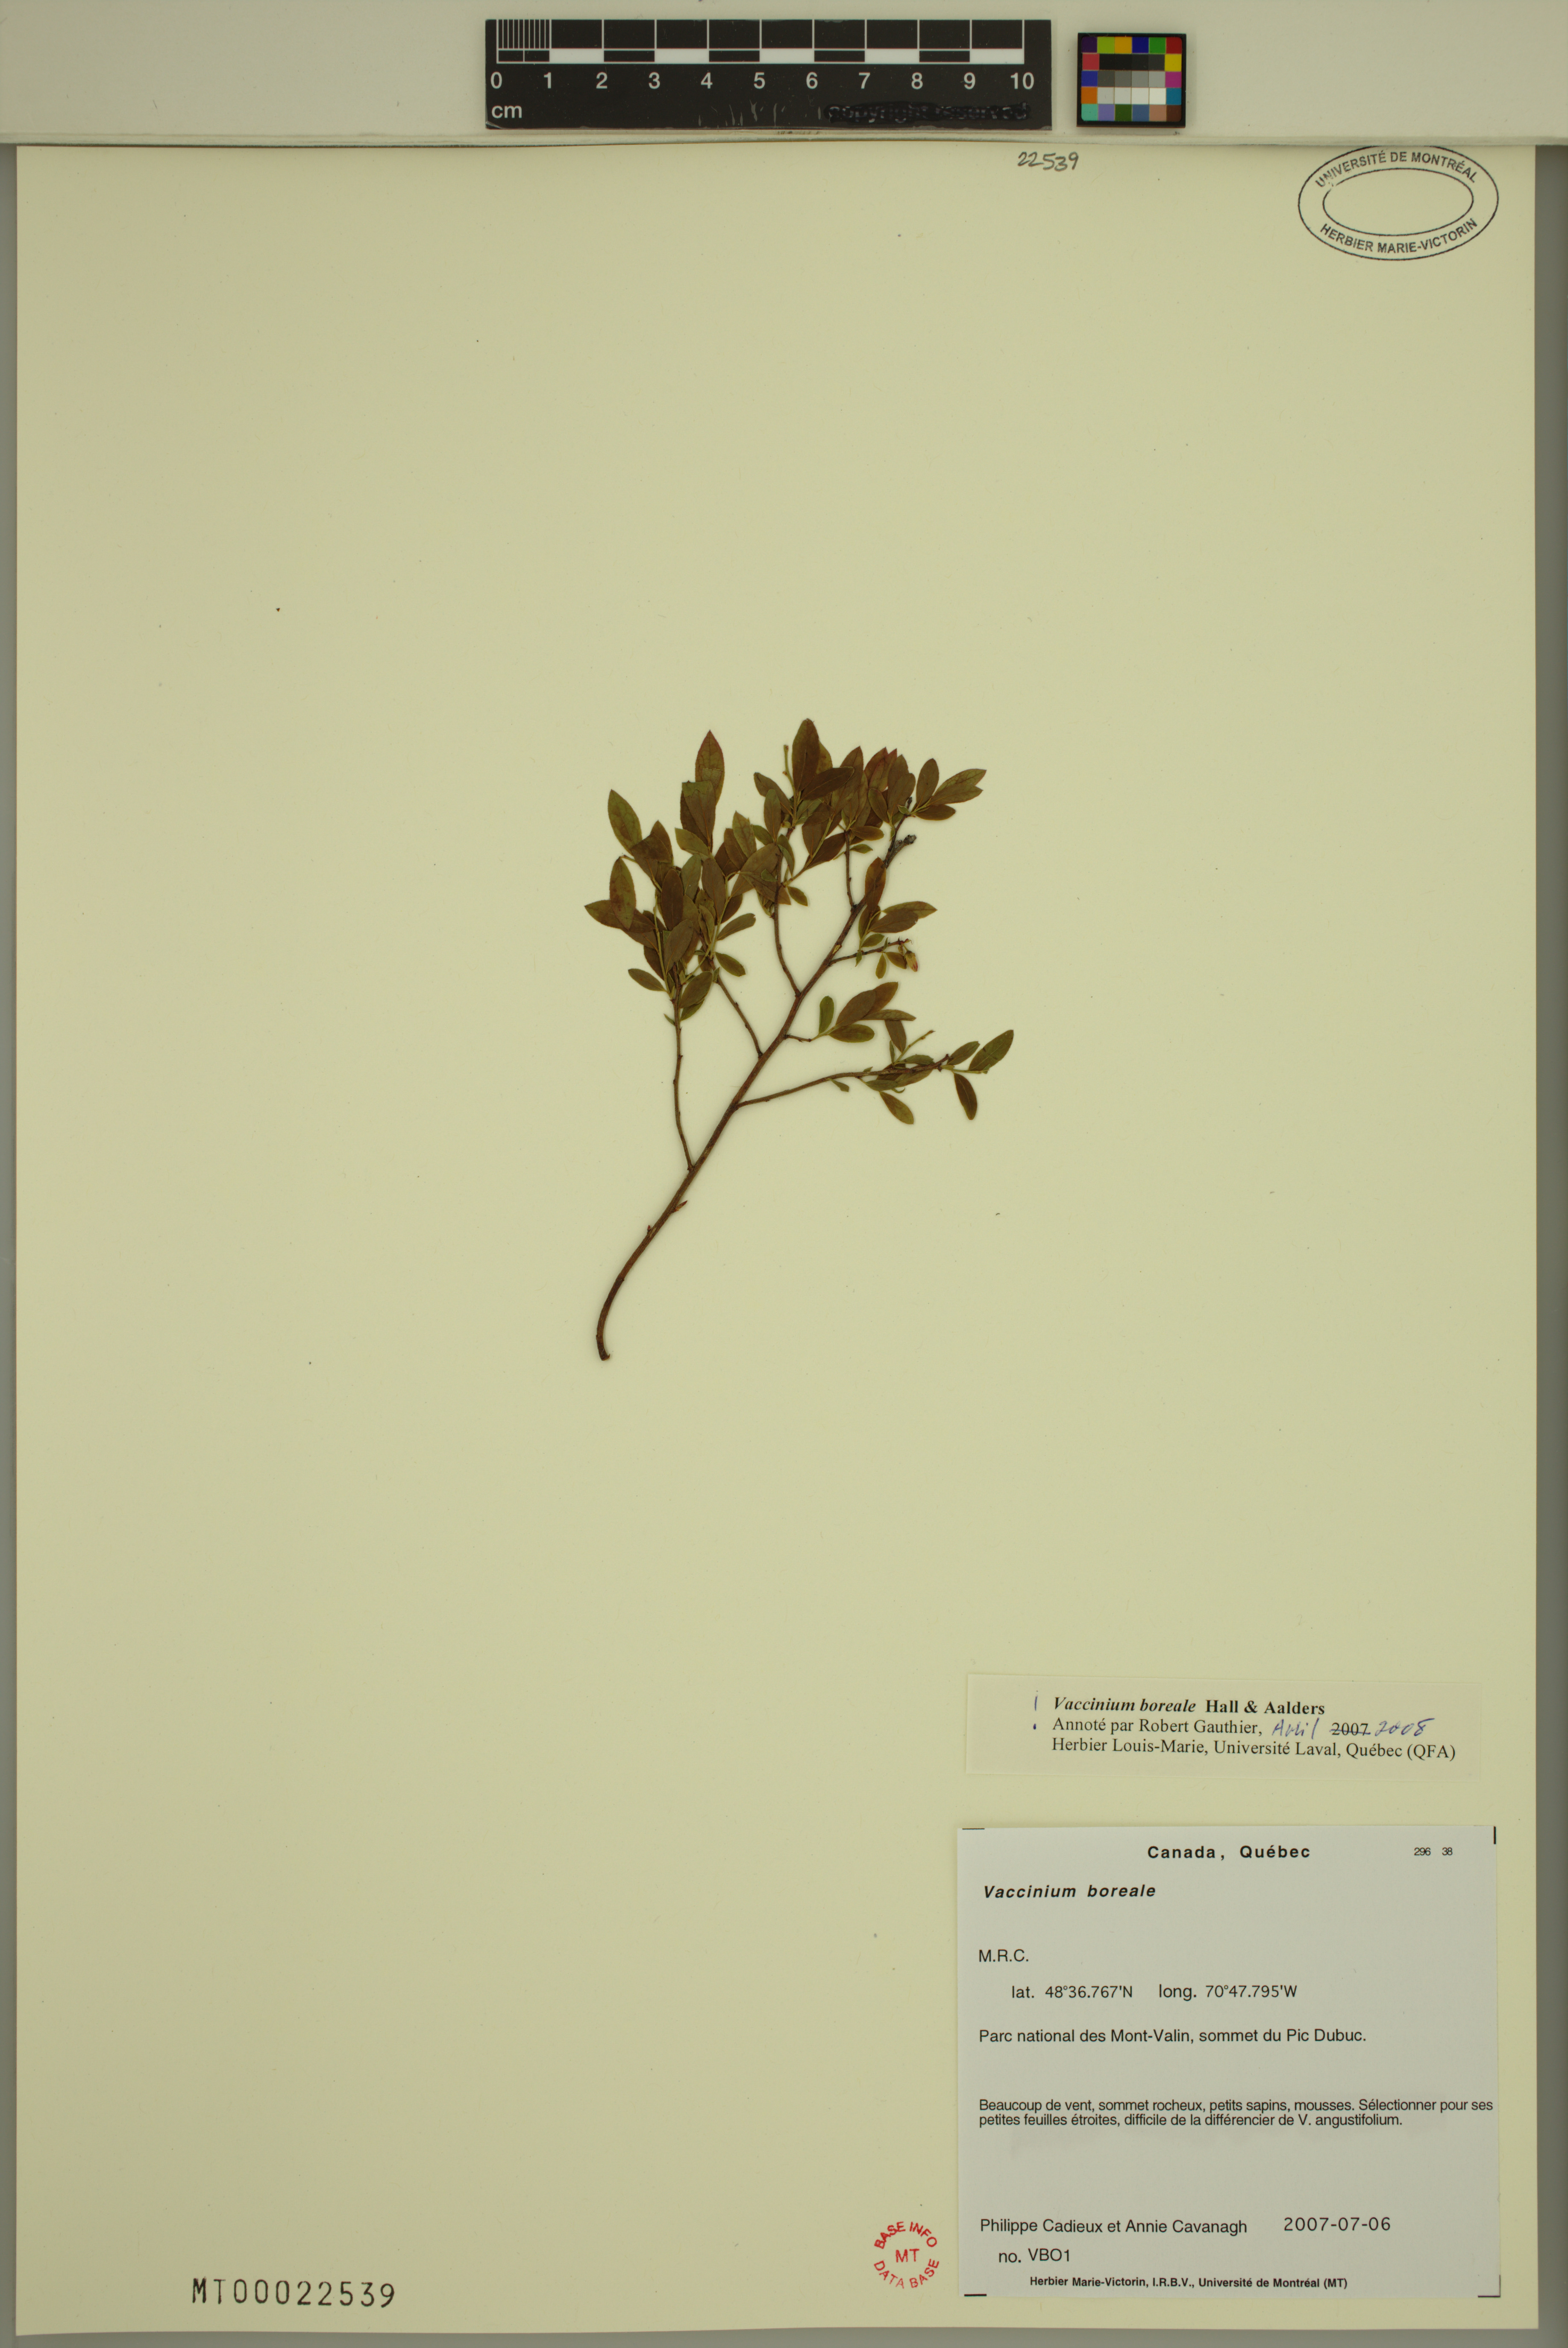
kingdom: Plantae
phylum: Tracheophyta
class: Magnoliopsida
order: Ericales
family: Ericaceae
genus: Vaccinium
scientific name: Vaccinium boreale
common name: Northern blueberry
